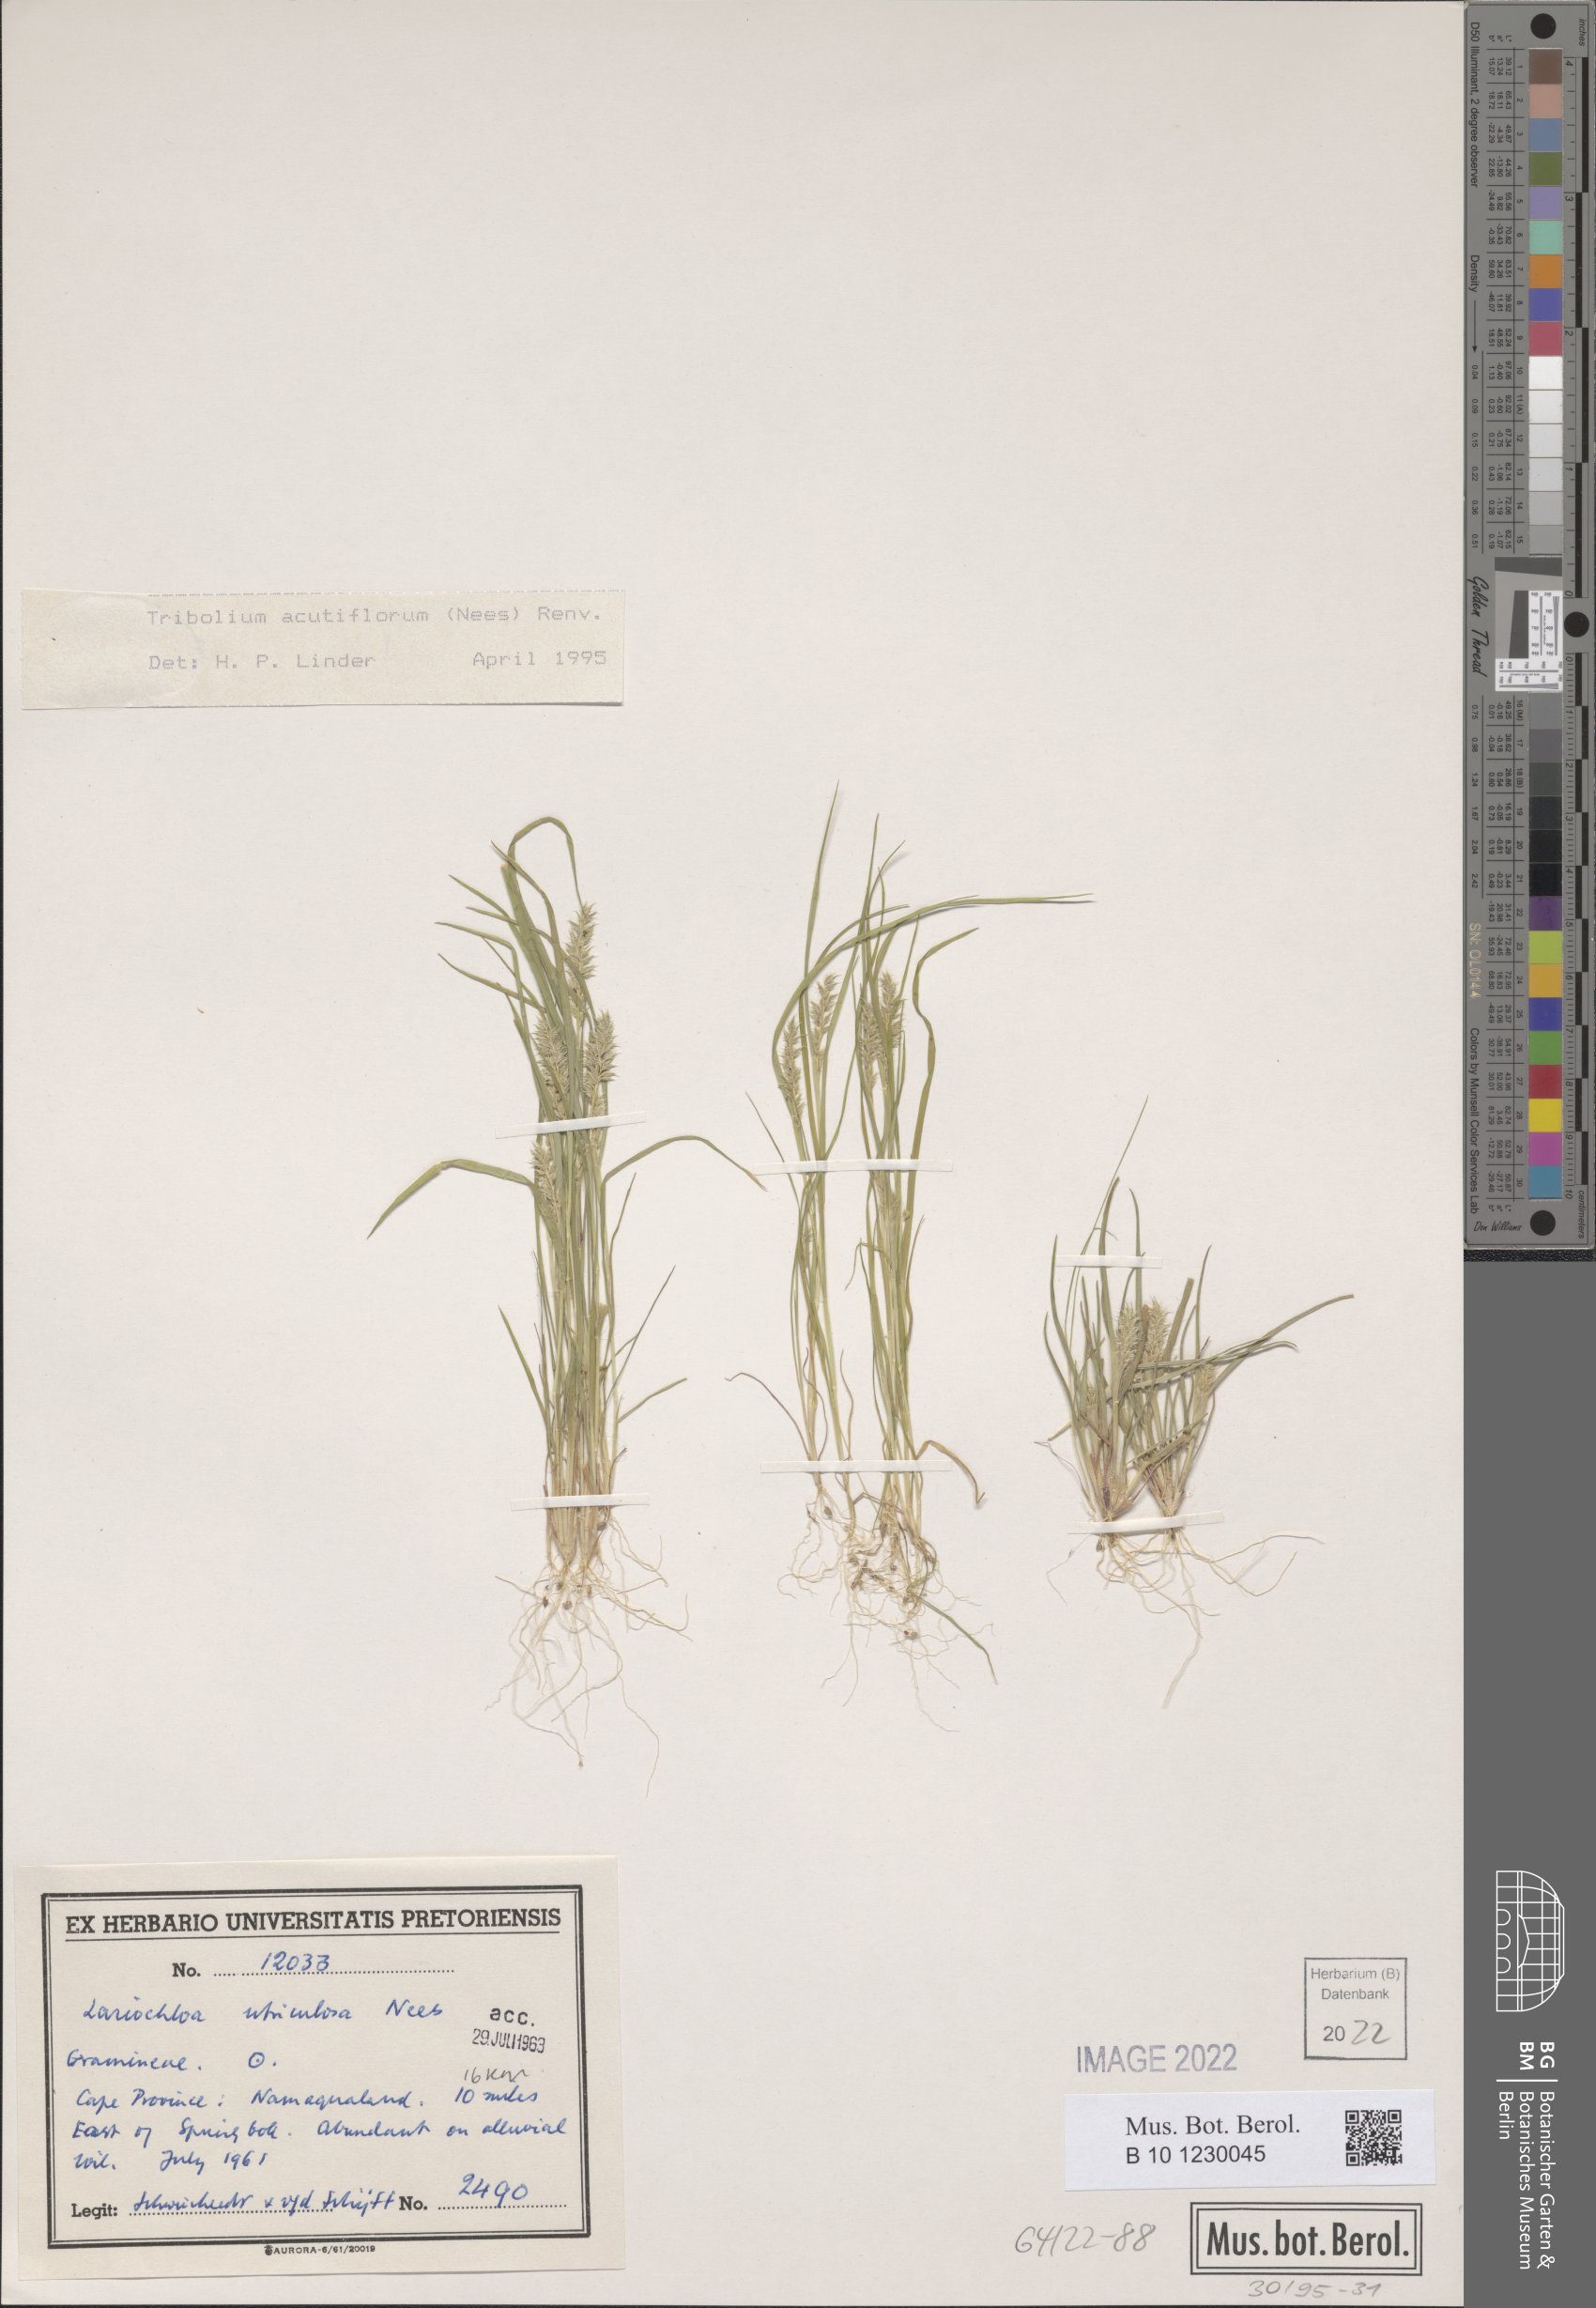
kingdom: Plantae
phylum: Tracheophyta
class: Liliopsida
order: Poales
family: Poaceae
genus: Tribolium
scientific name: Tribolium acutiflorum
